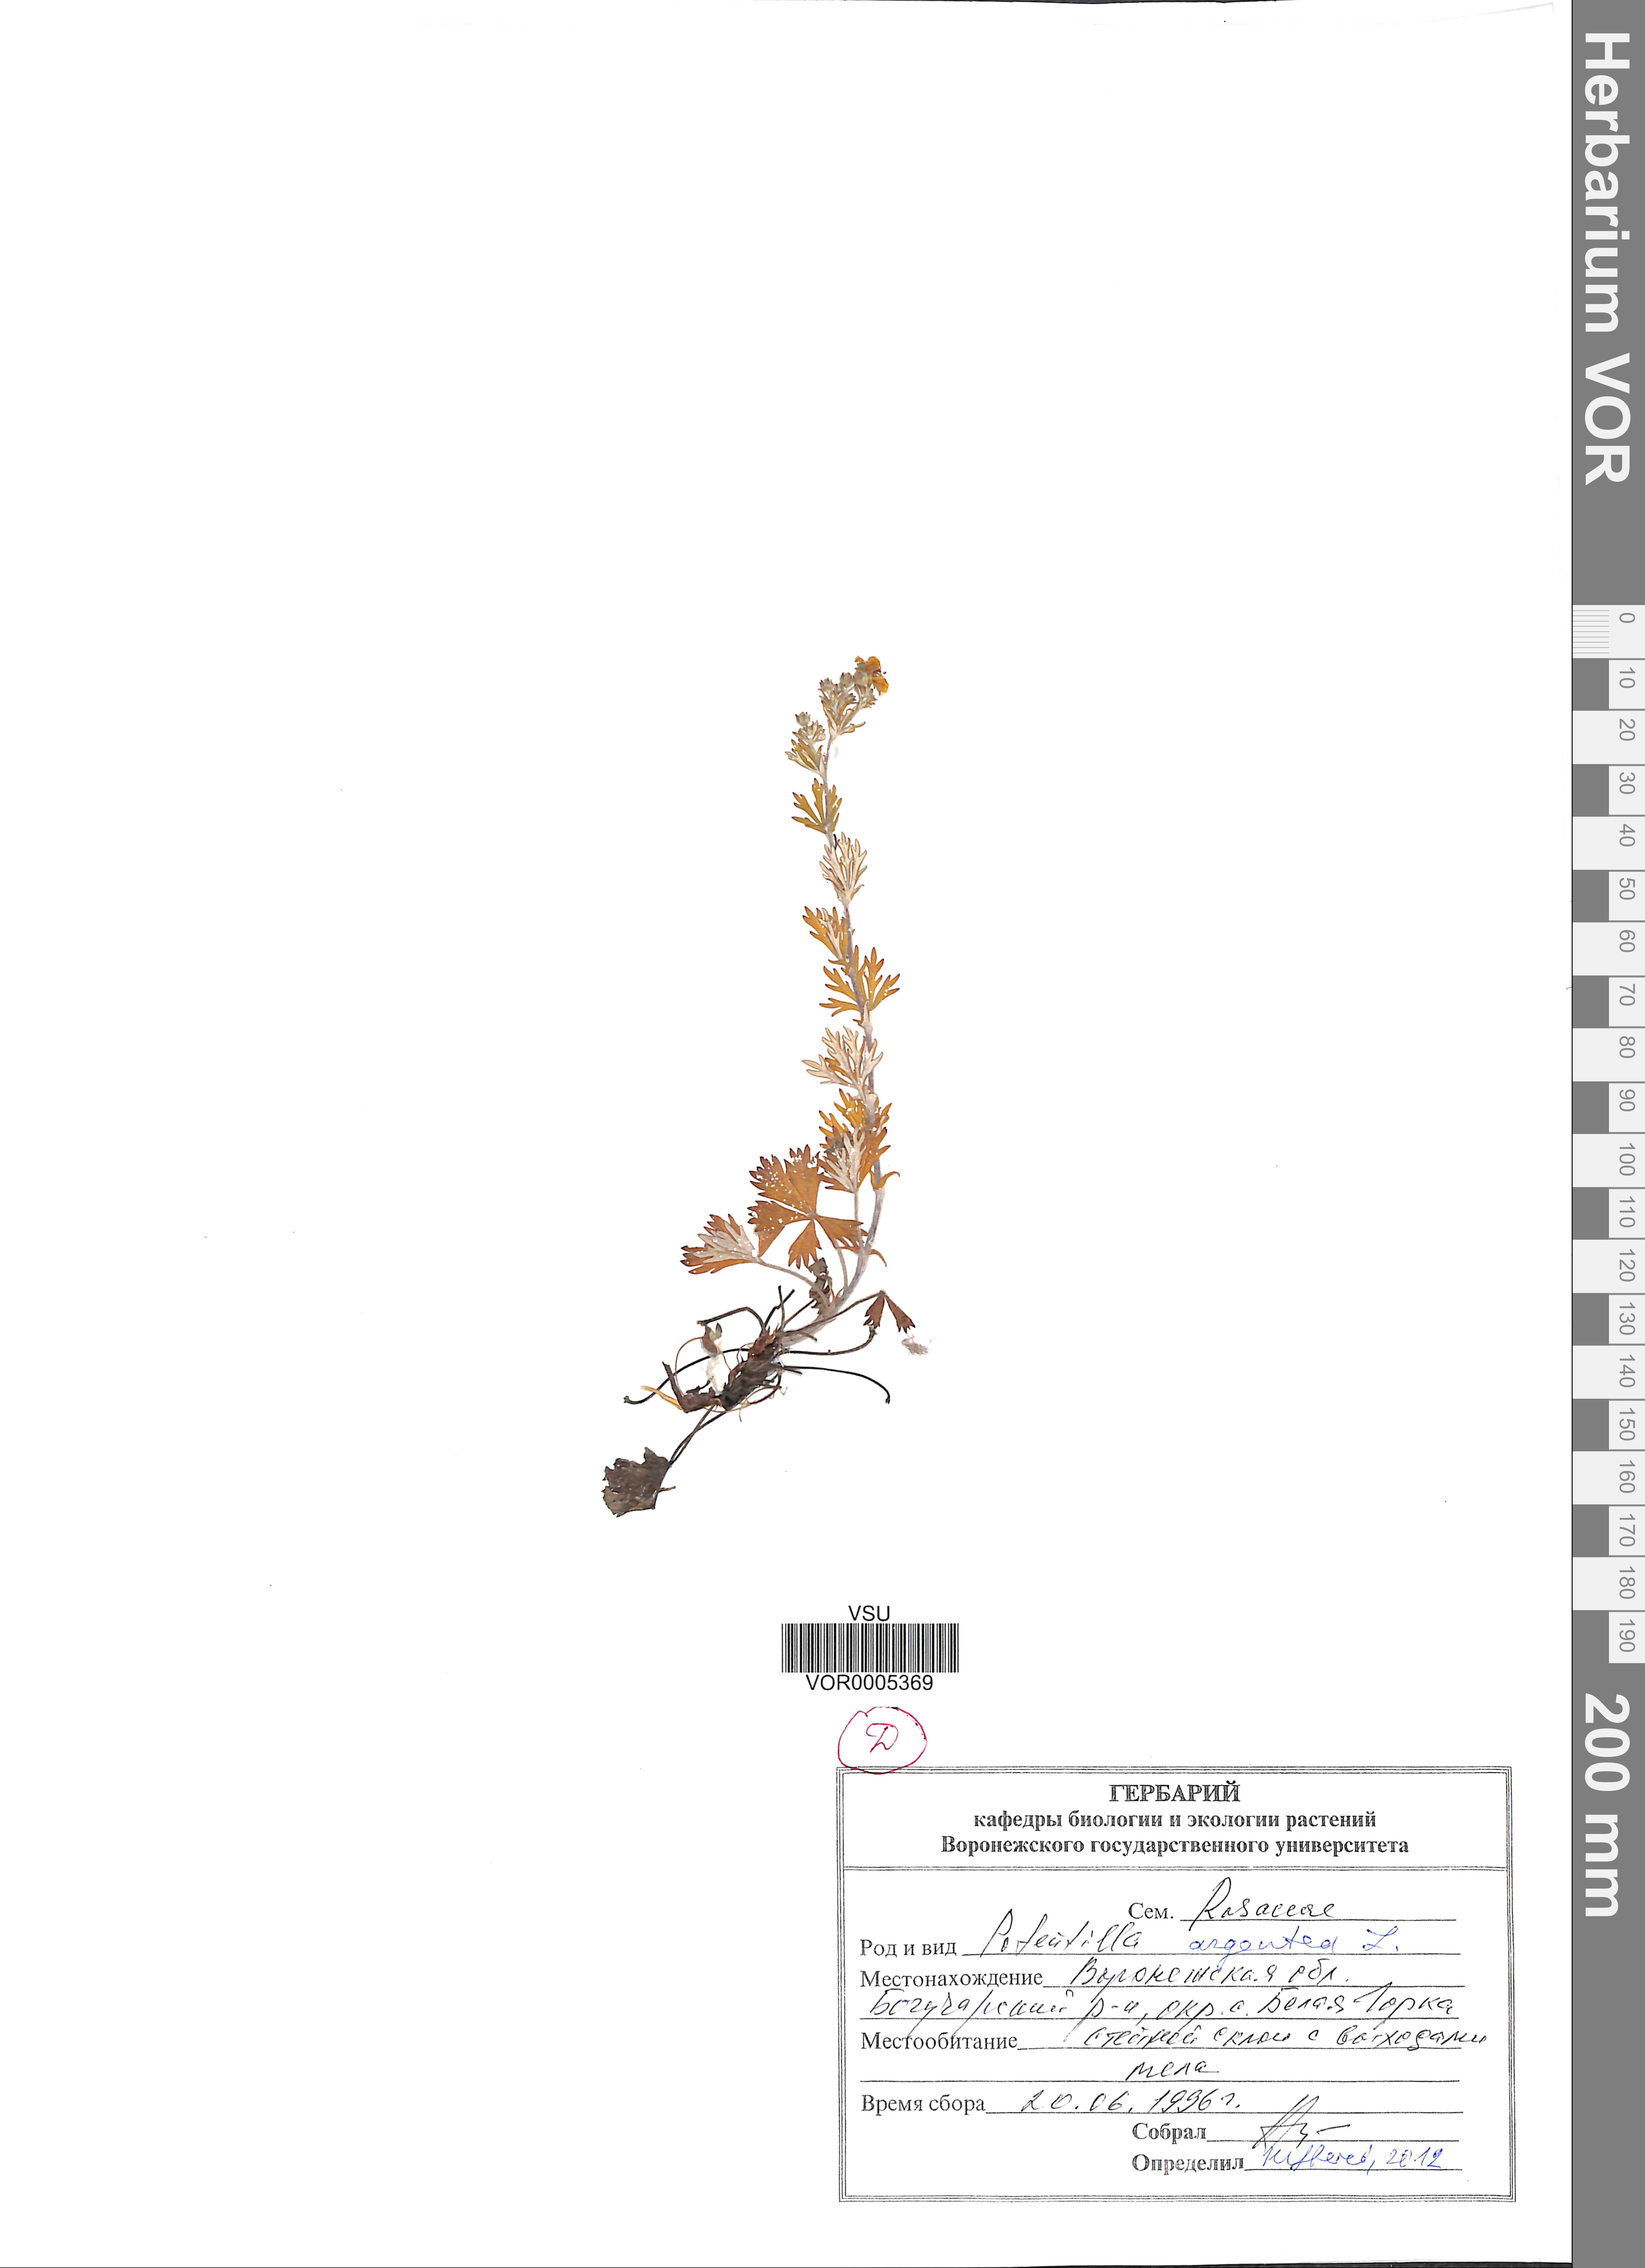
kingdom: Plantae
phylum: Tracheophyta
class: Magnoliopsida
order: Rosales
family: Rosaceae
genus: Potentilla
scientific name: Potentilla argentea
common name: Hoary cinquefoil
